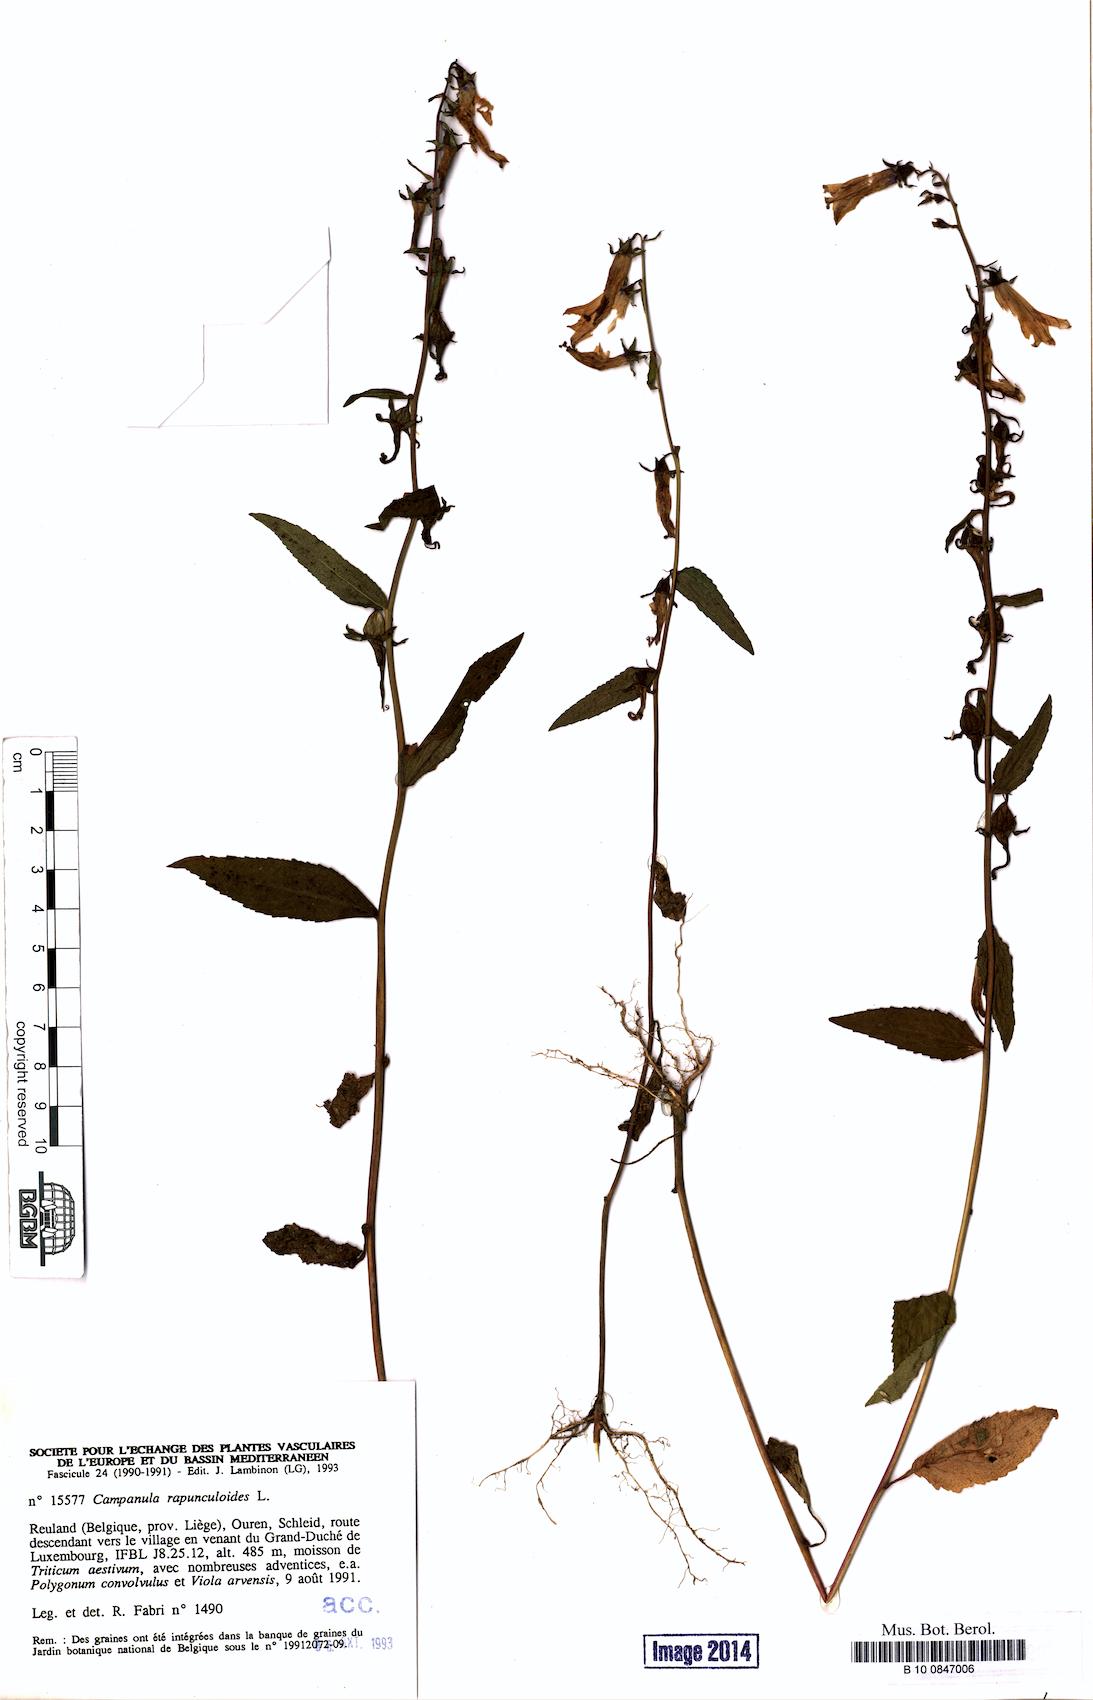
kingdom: Plantae
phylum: Tracheophyta
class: Magnoliopsida
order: Asterales
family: Campanulaceae
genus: Campanula
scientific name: Campanula rapunculoides
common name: Creeping bellflower
